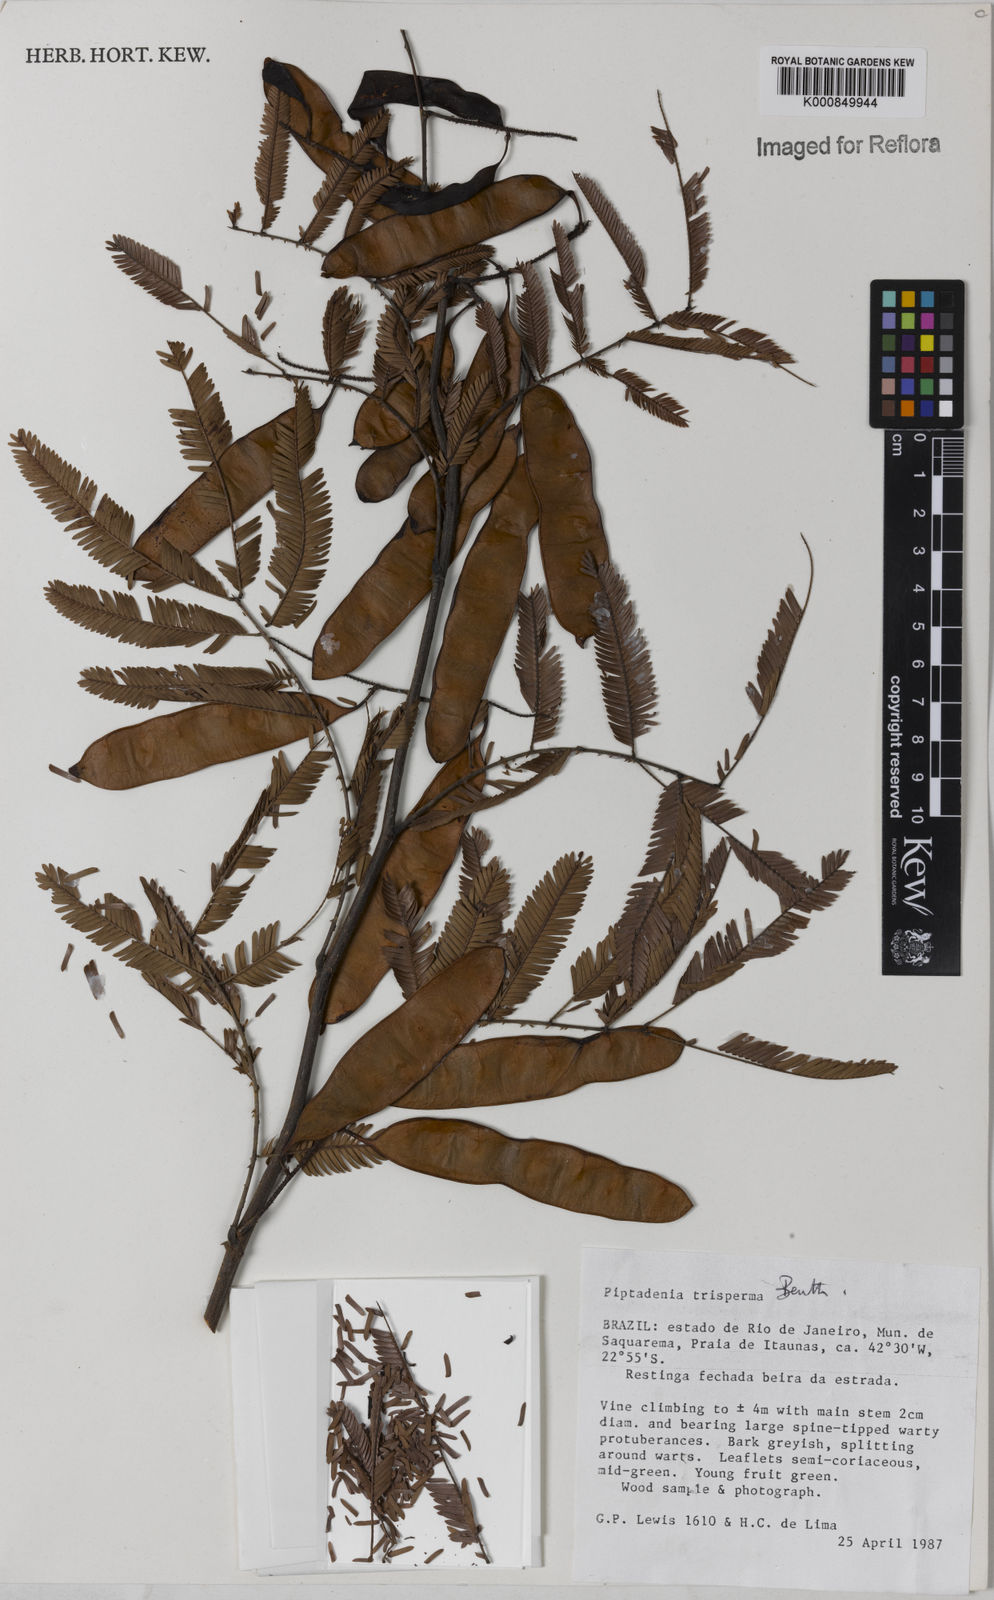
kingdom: Plantae
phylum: Tracheophyta
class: Magnoliopsida
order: Fabales
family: Fabaceae
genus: Piptadenia
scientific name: Piptadenia trisperma
